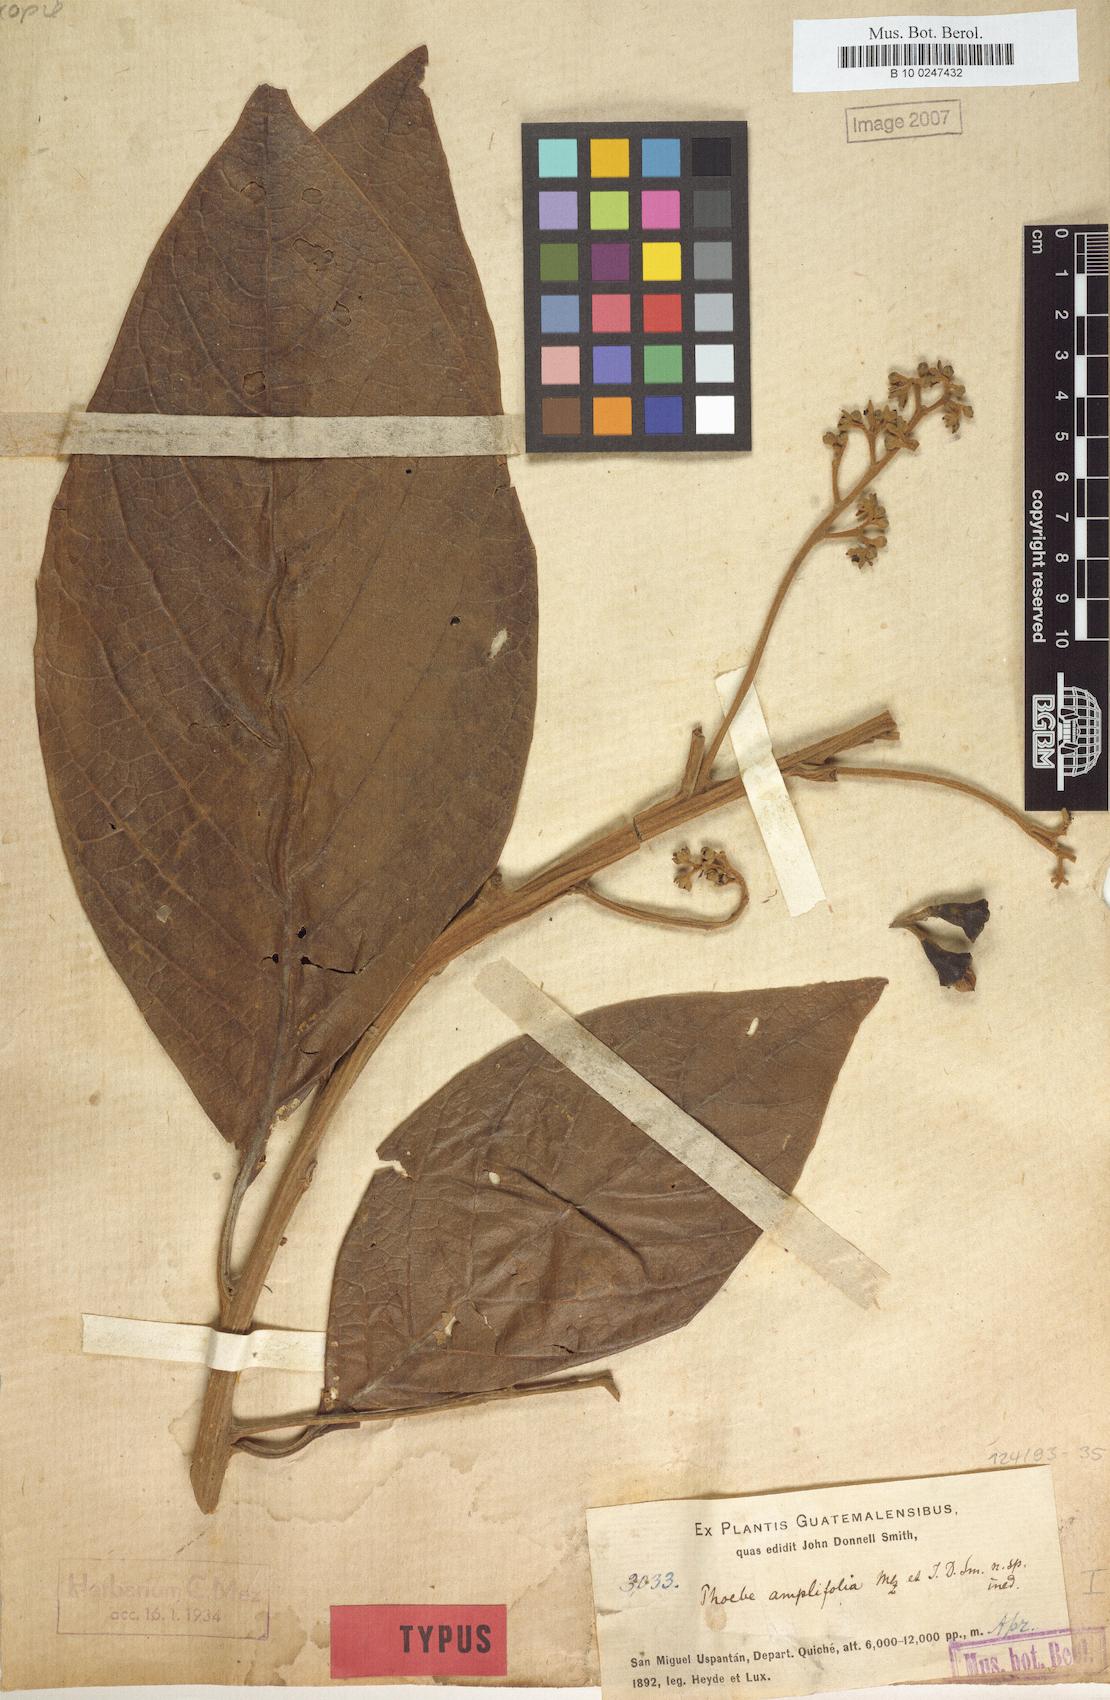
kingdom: Plantae
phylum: Tracheophyta
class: Magnoliopsida
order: Laurales
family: Lauraceae
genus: Ocotea
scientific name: Ocotea amplifolia
